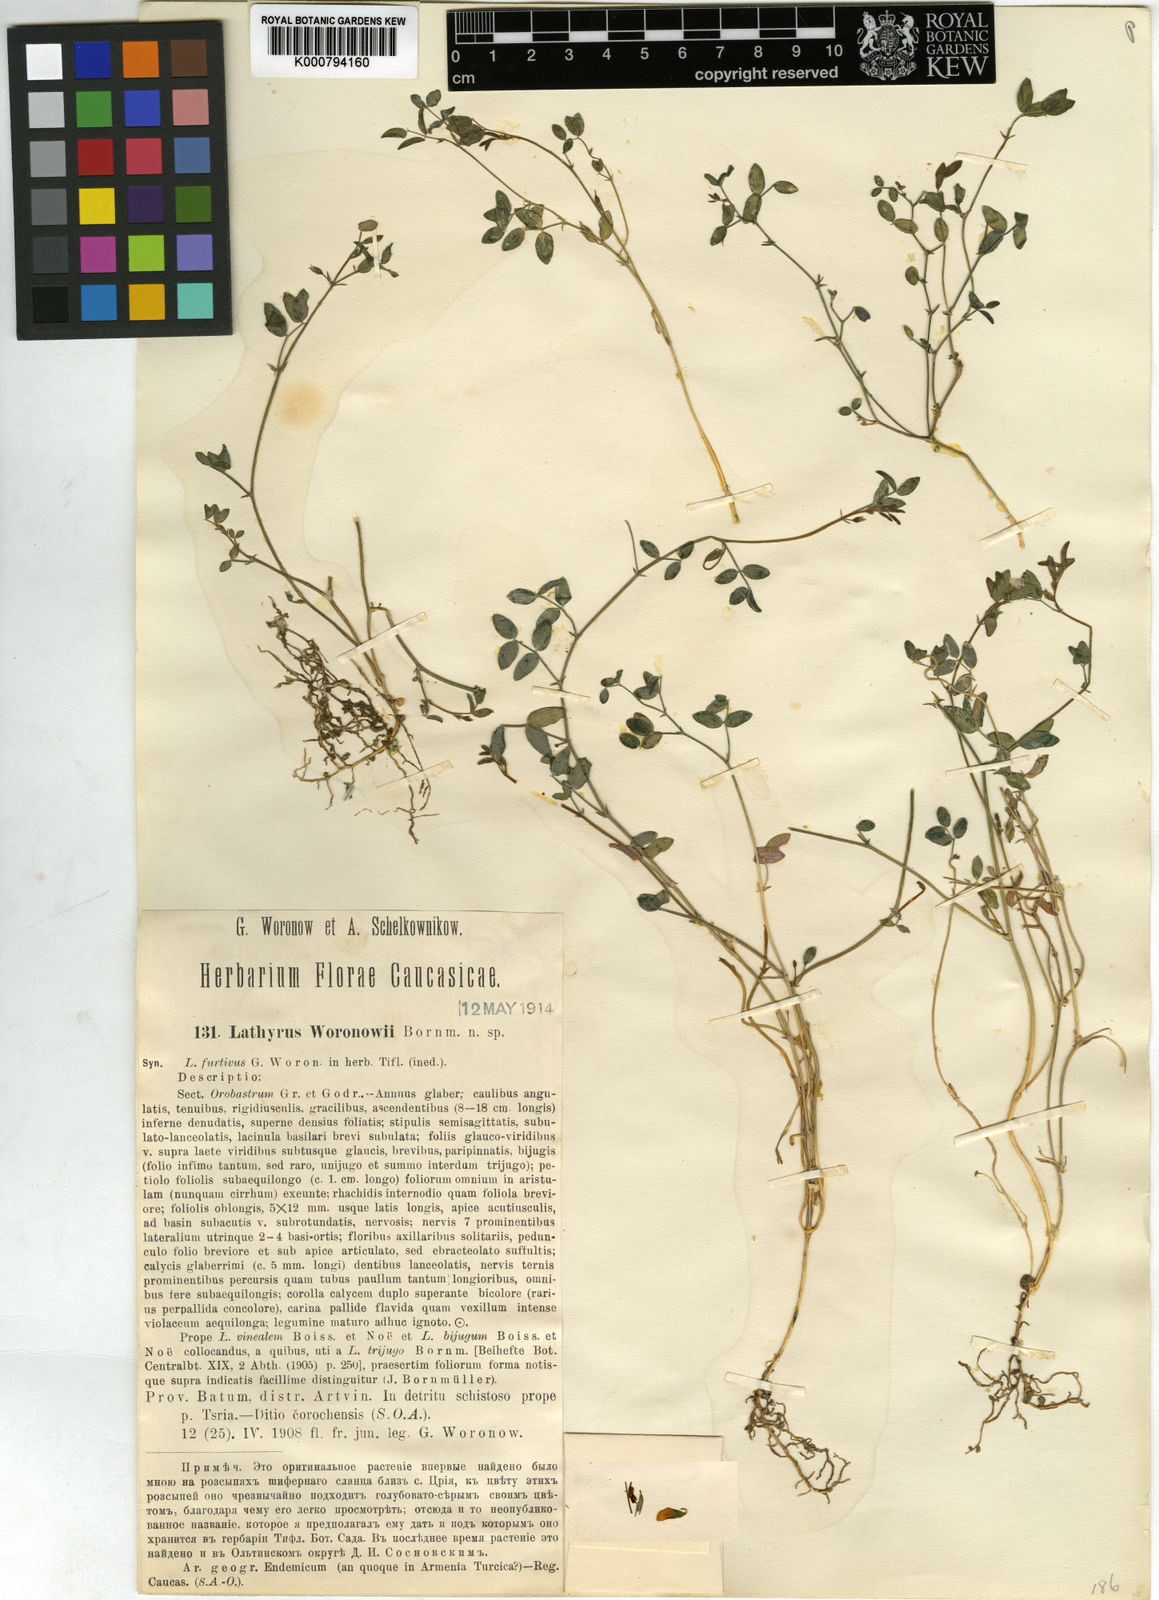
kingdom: Plantae
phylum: Tracheophyta
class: Magnoliopsida
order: Fabales
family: Fabaceae
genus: Lathyrus
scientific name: Lathyrus woronowii
